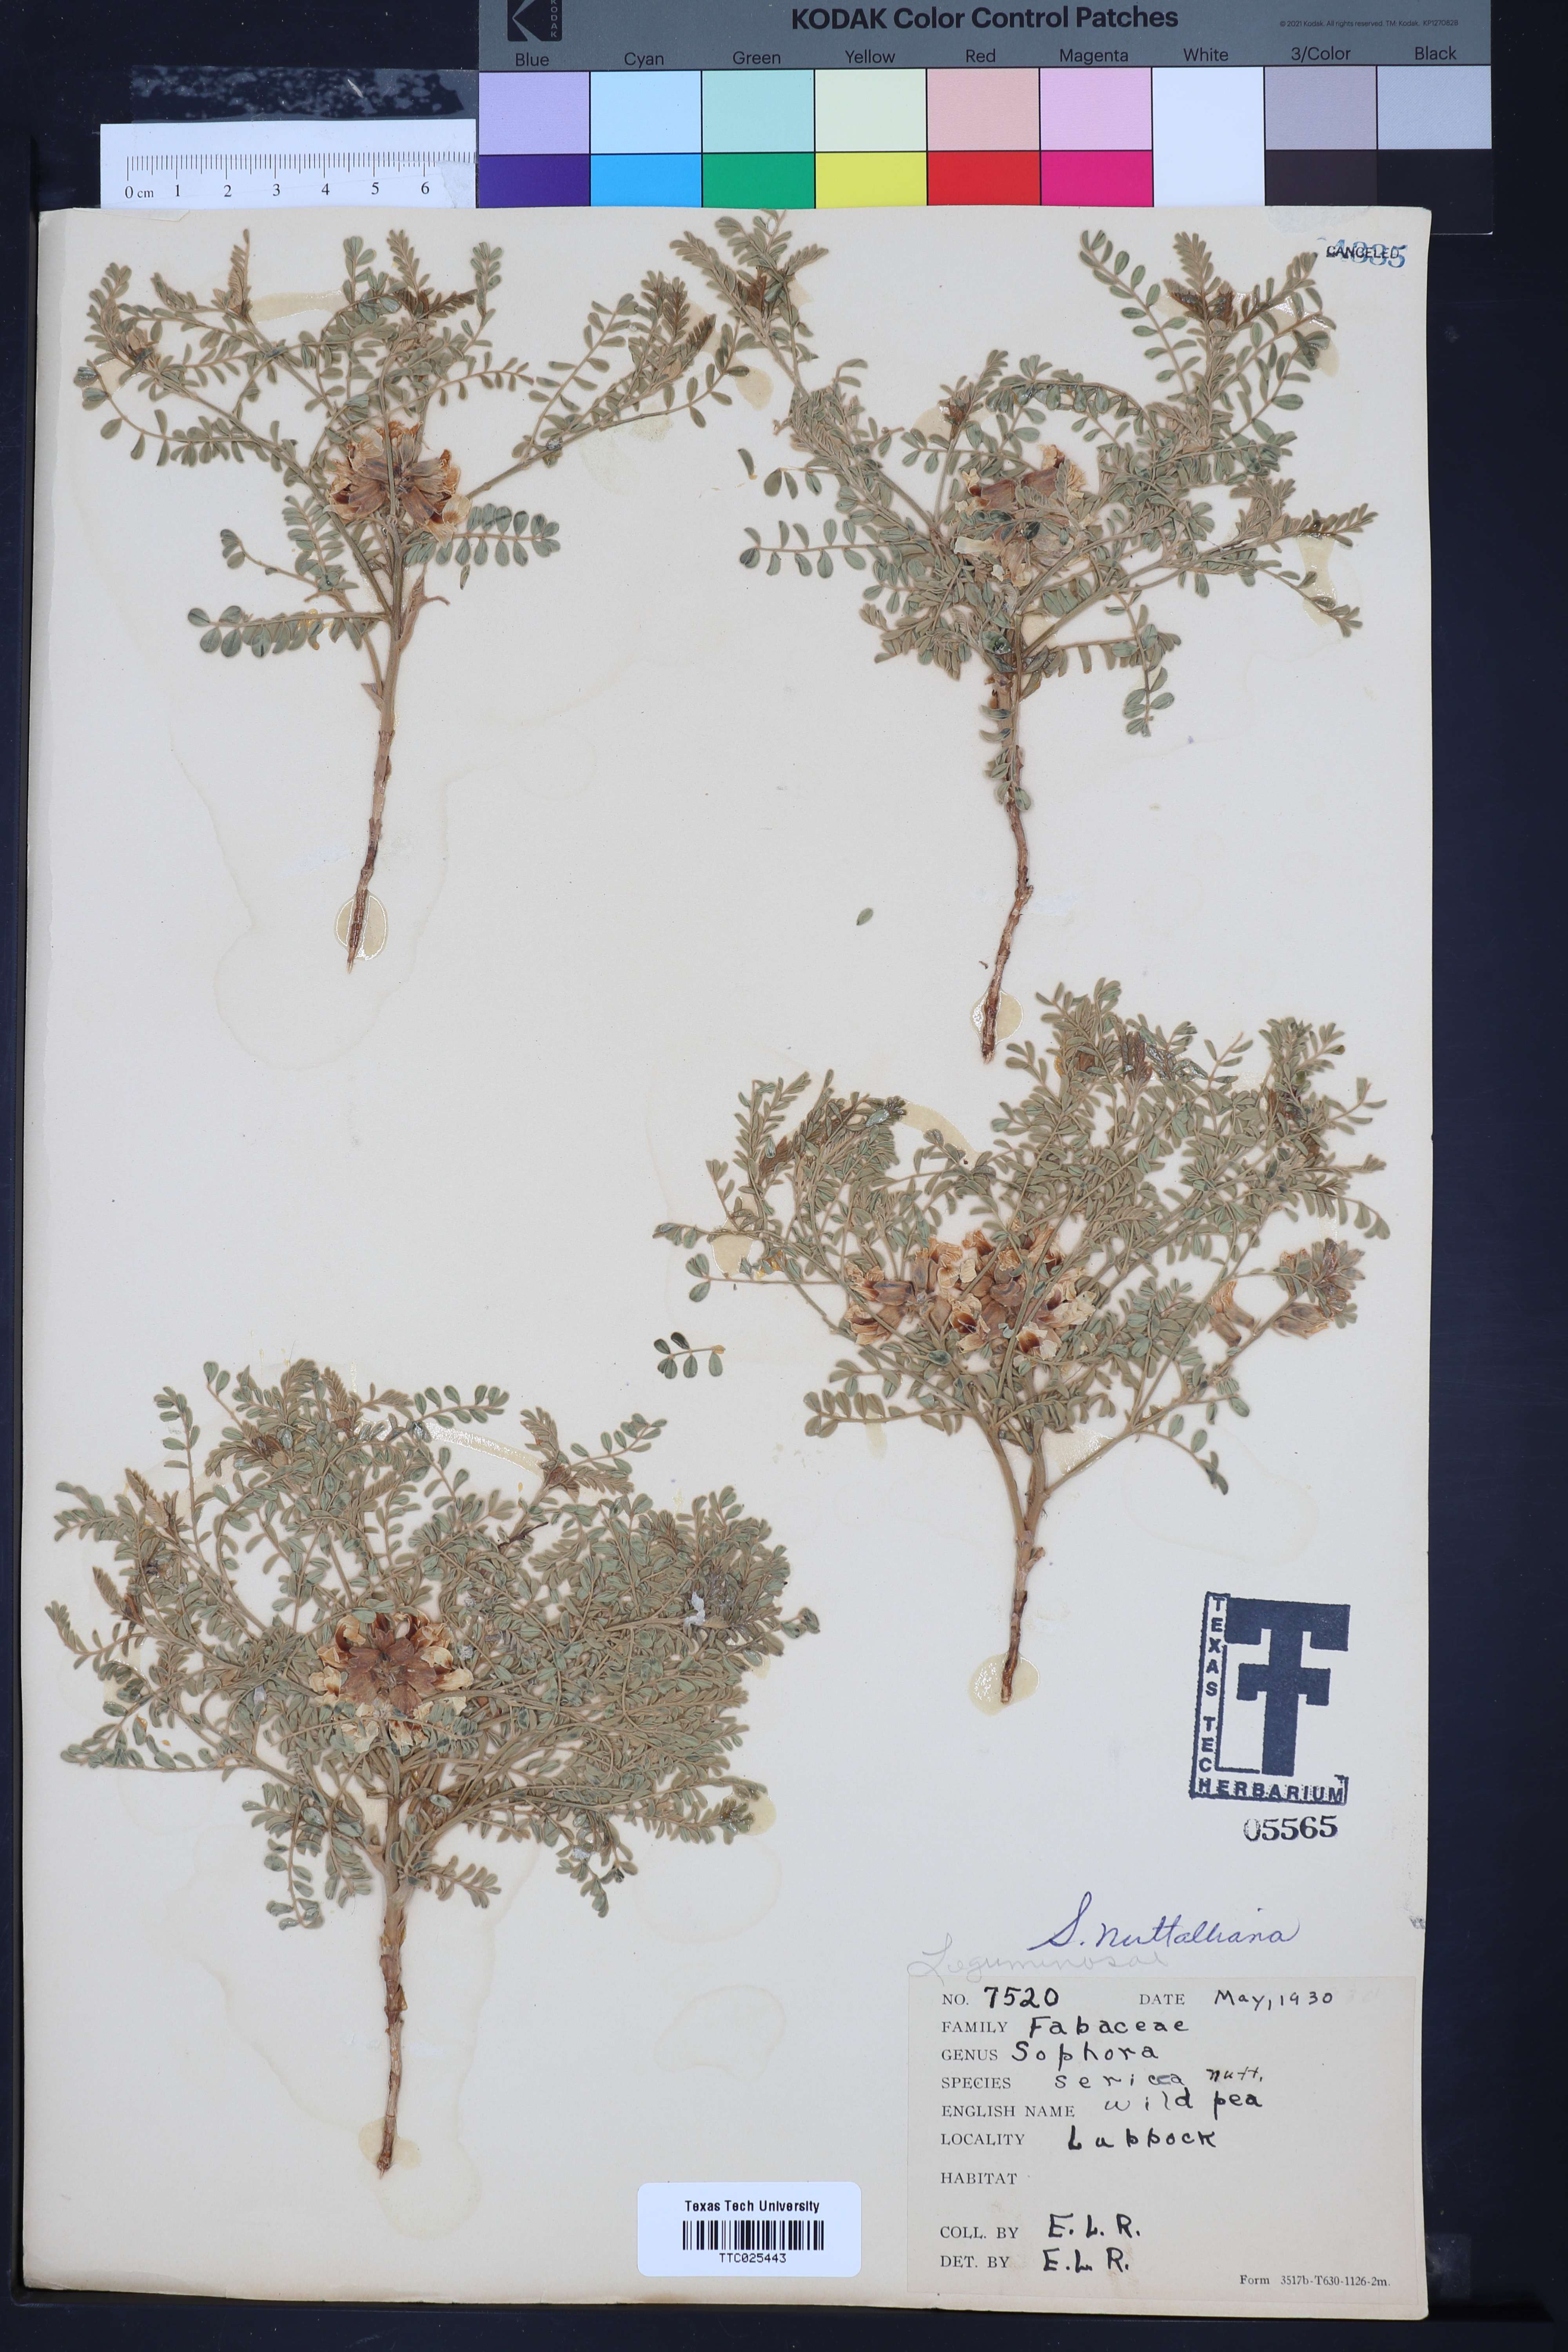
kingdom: Plantae
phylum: Tracheophyta
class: Magnoliopsida
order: Fabales
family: Fabaceae
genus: Sophora
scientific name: Sophora nuttalliana
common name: Silky sophora
